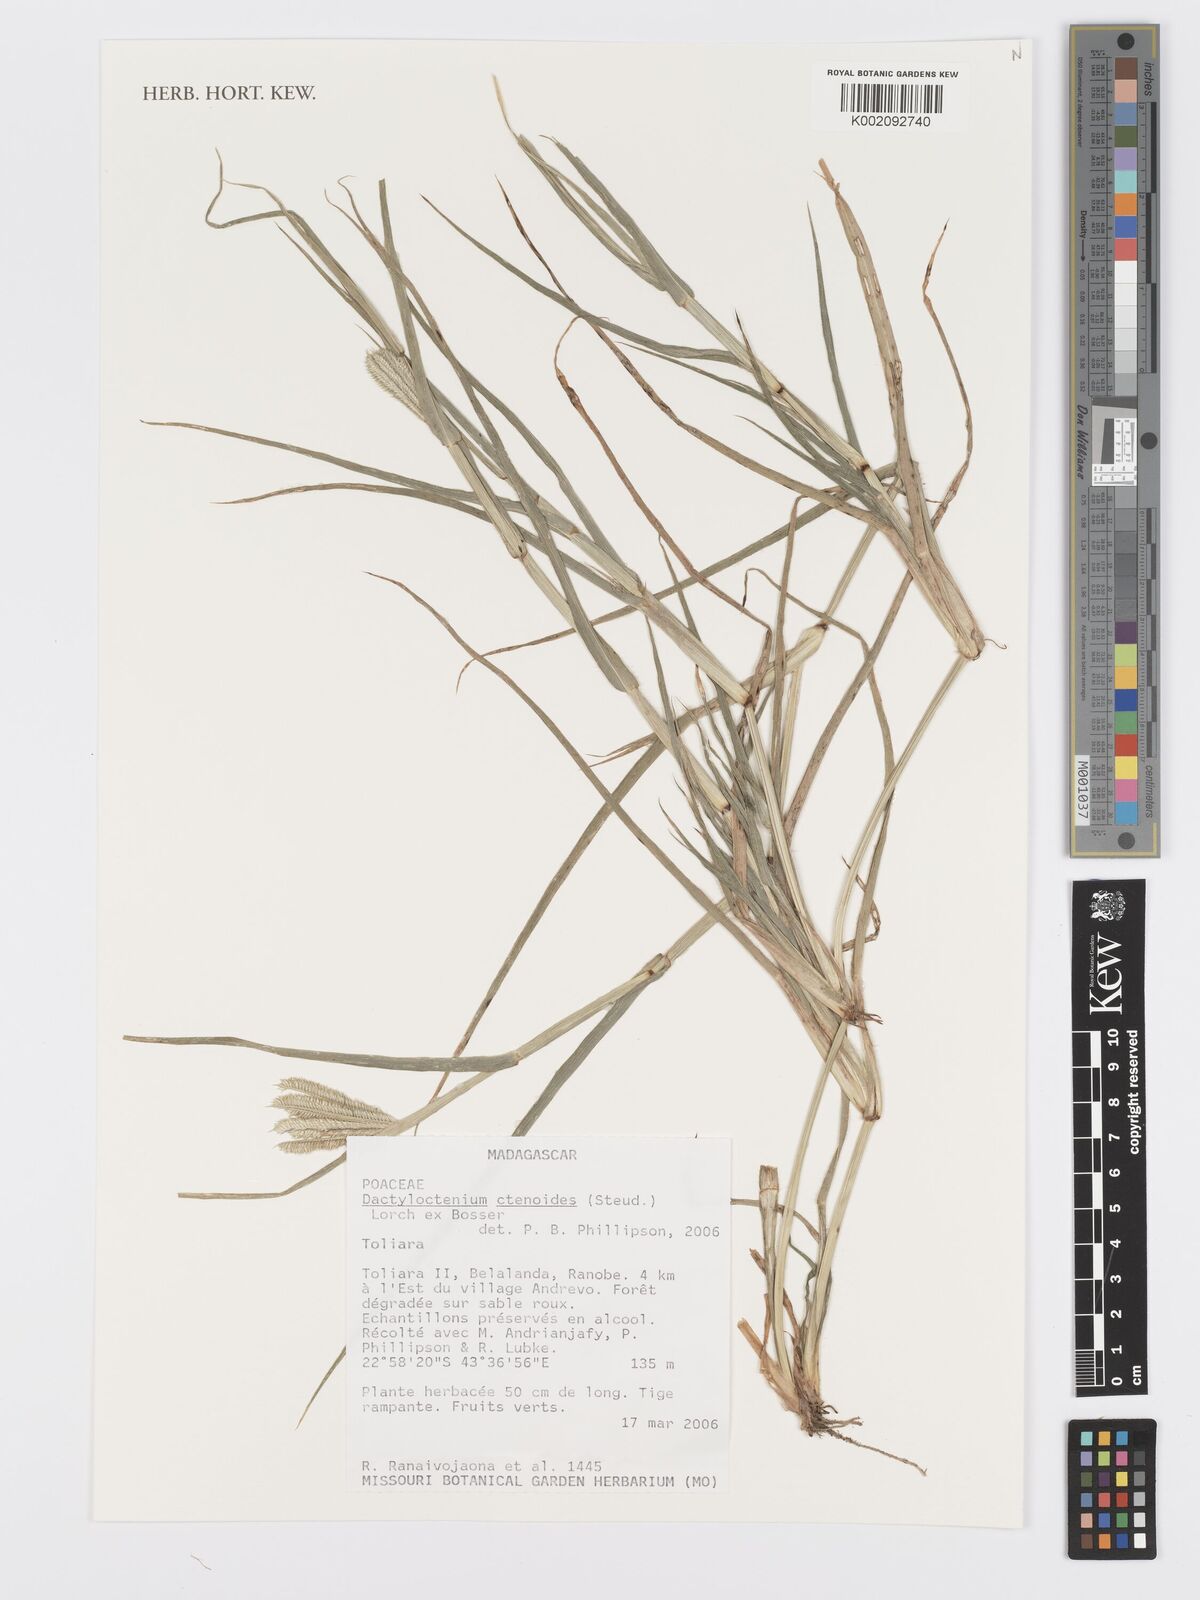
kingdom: Plantae
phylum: Tracheophyta
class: Liliopsida
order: Poales
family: Poaceae
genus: Dactyloctenium
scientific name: Dactyloctenium ctenoides
